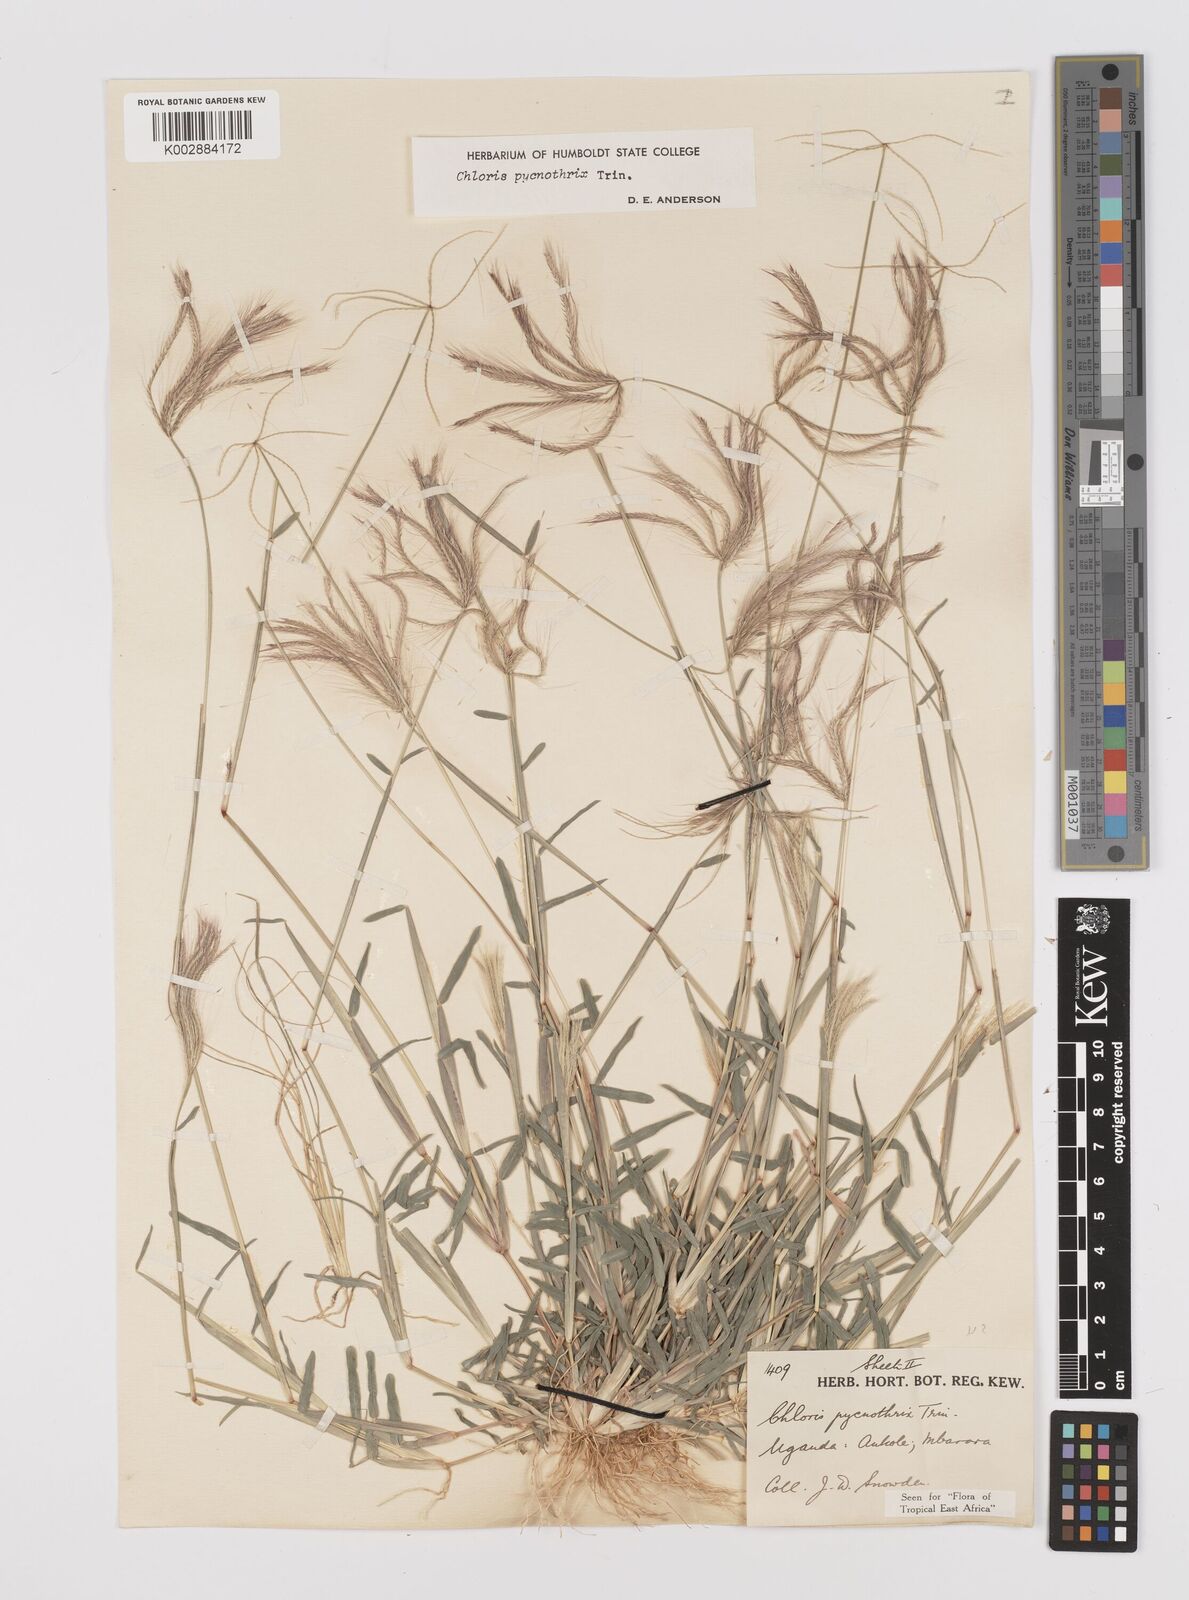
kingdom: Plantae
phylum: Tracheophyta
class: Liliopsida
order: Poales
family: Poaceae
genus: Chloris
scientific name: Chloris pycnothrix
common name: Spiderweb chloris
